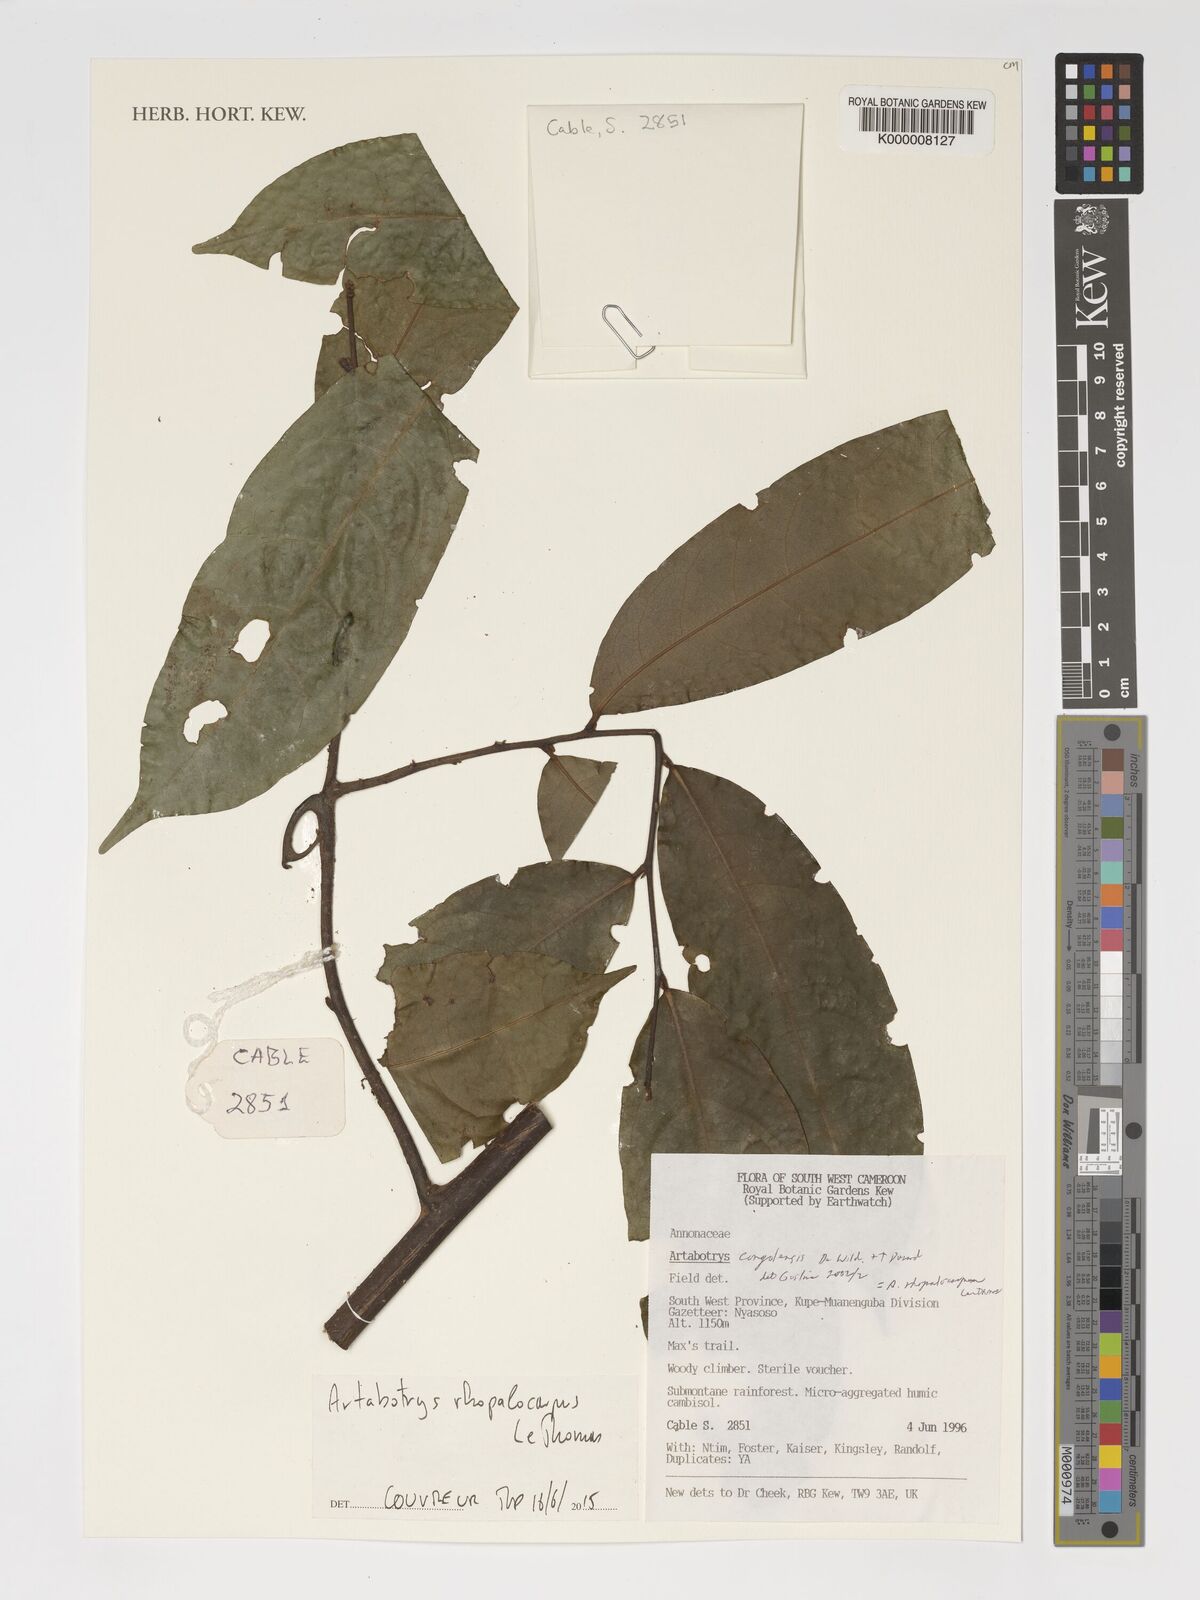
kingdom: Plantae
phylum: Tracheophyta
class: Magnoliopsida
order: Magnoliales
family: Annonaceae
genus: Artabotrys
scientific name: Artabotrys congolensis
